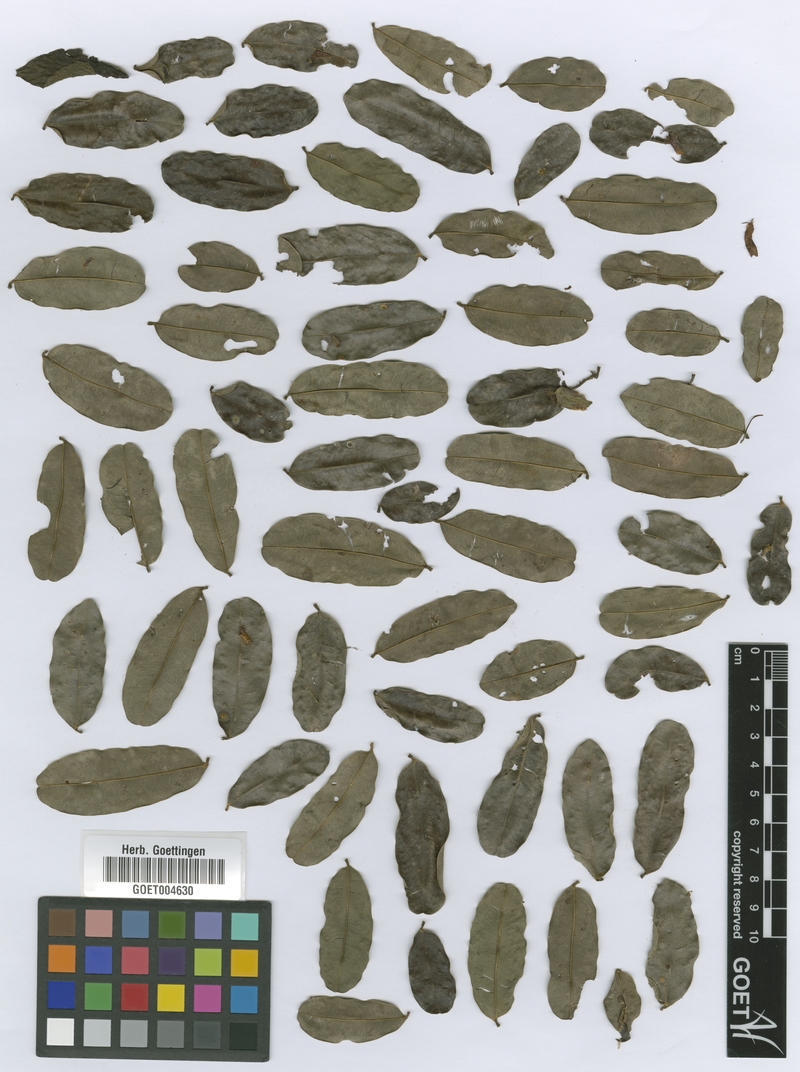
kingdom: Plantae
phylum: Tracheophyta
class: Magnoliopsida
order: Fabales
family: Fabaceae
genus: Afzelia
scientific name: Afzelia pachyloba
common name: White afzelia
